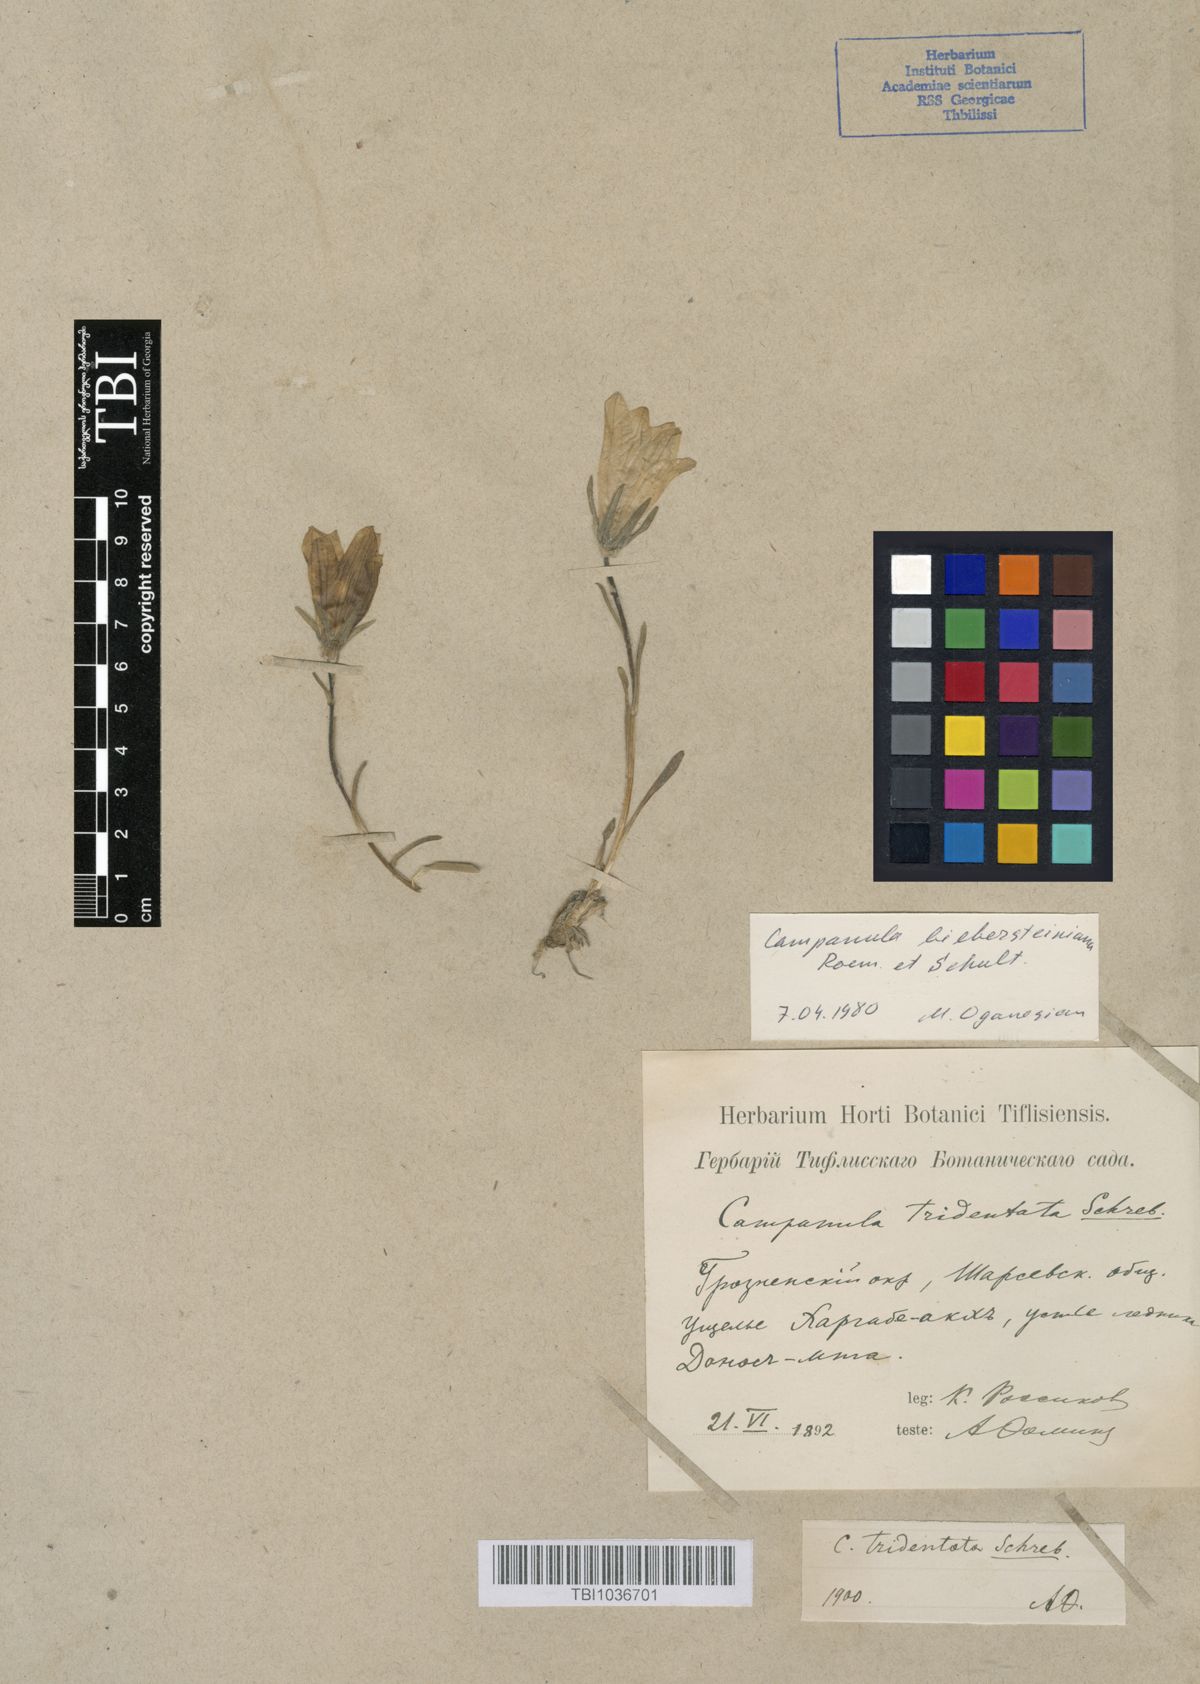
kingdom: Plantae
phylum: Tracheophyta
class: Magnoliopsida
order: Asterales
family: Campanulaceae
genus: Campanula
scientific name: Campanula tridentata
